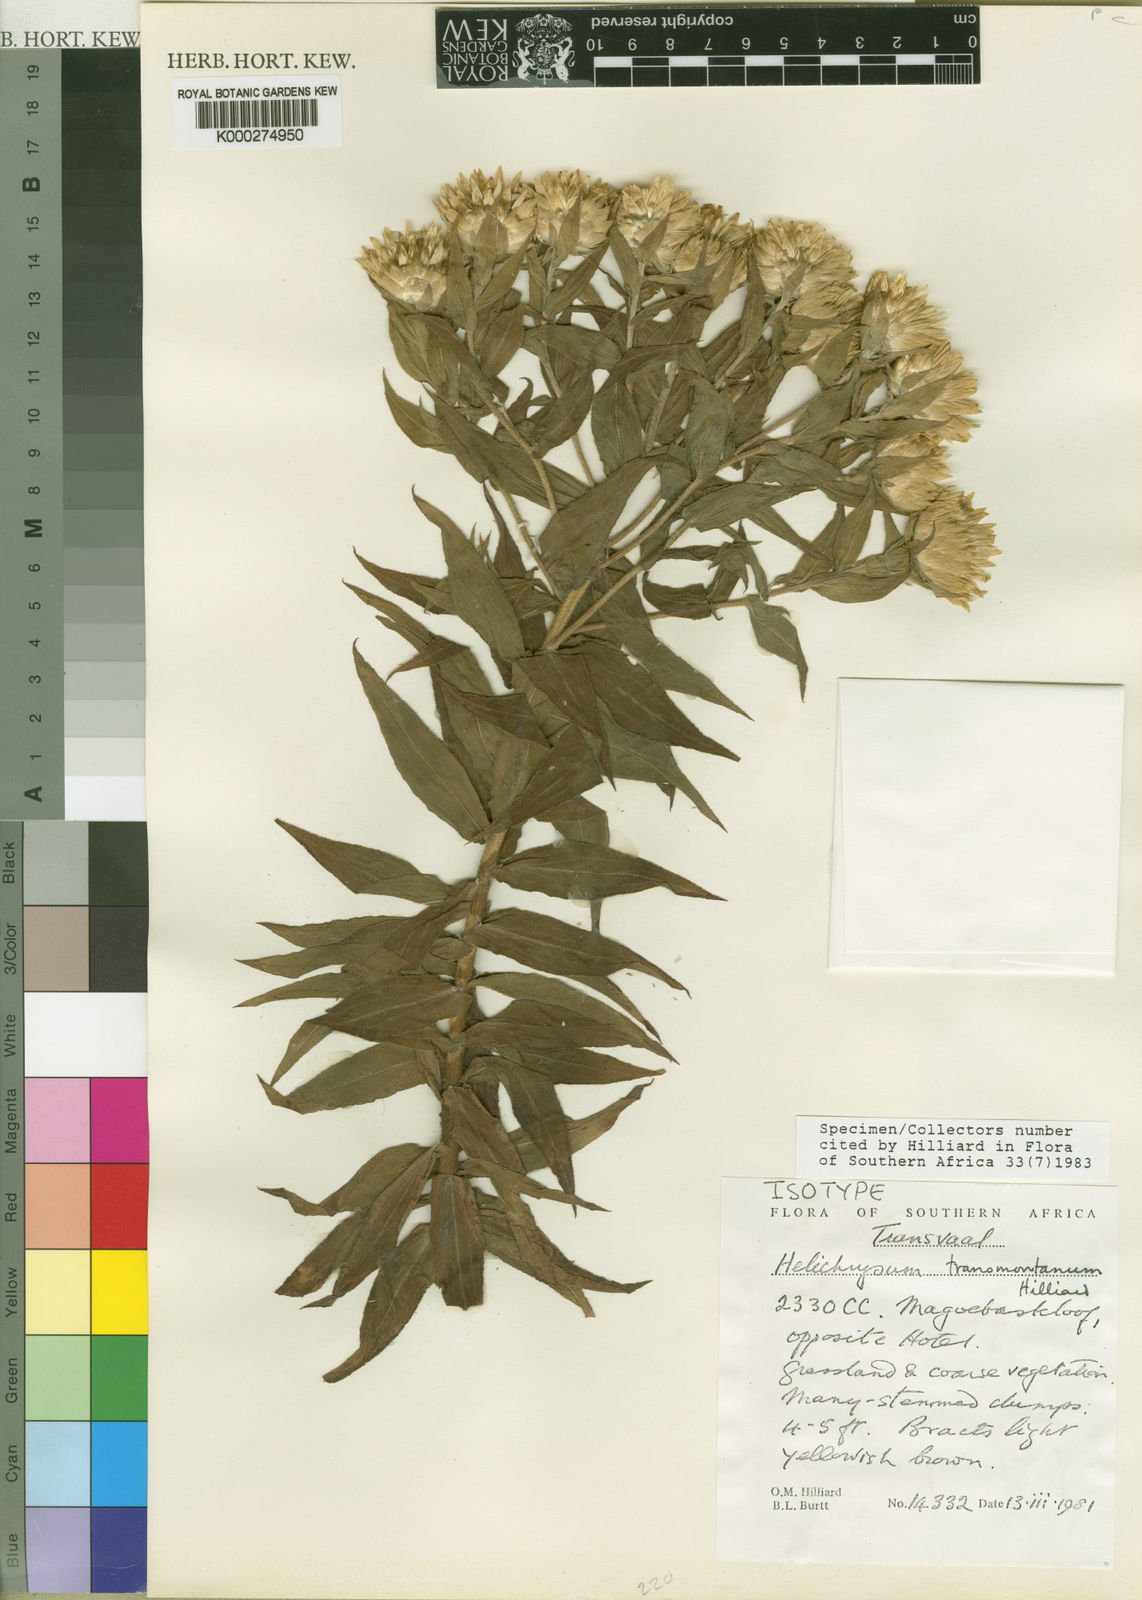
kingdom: Plantae
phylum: Tracheophyta
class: Magnoliopsida
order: Asterales
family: Asteraceae
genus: Helichrysum
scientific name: Helichrysum transmontanum
